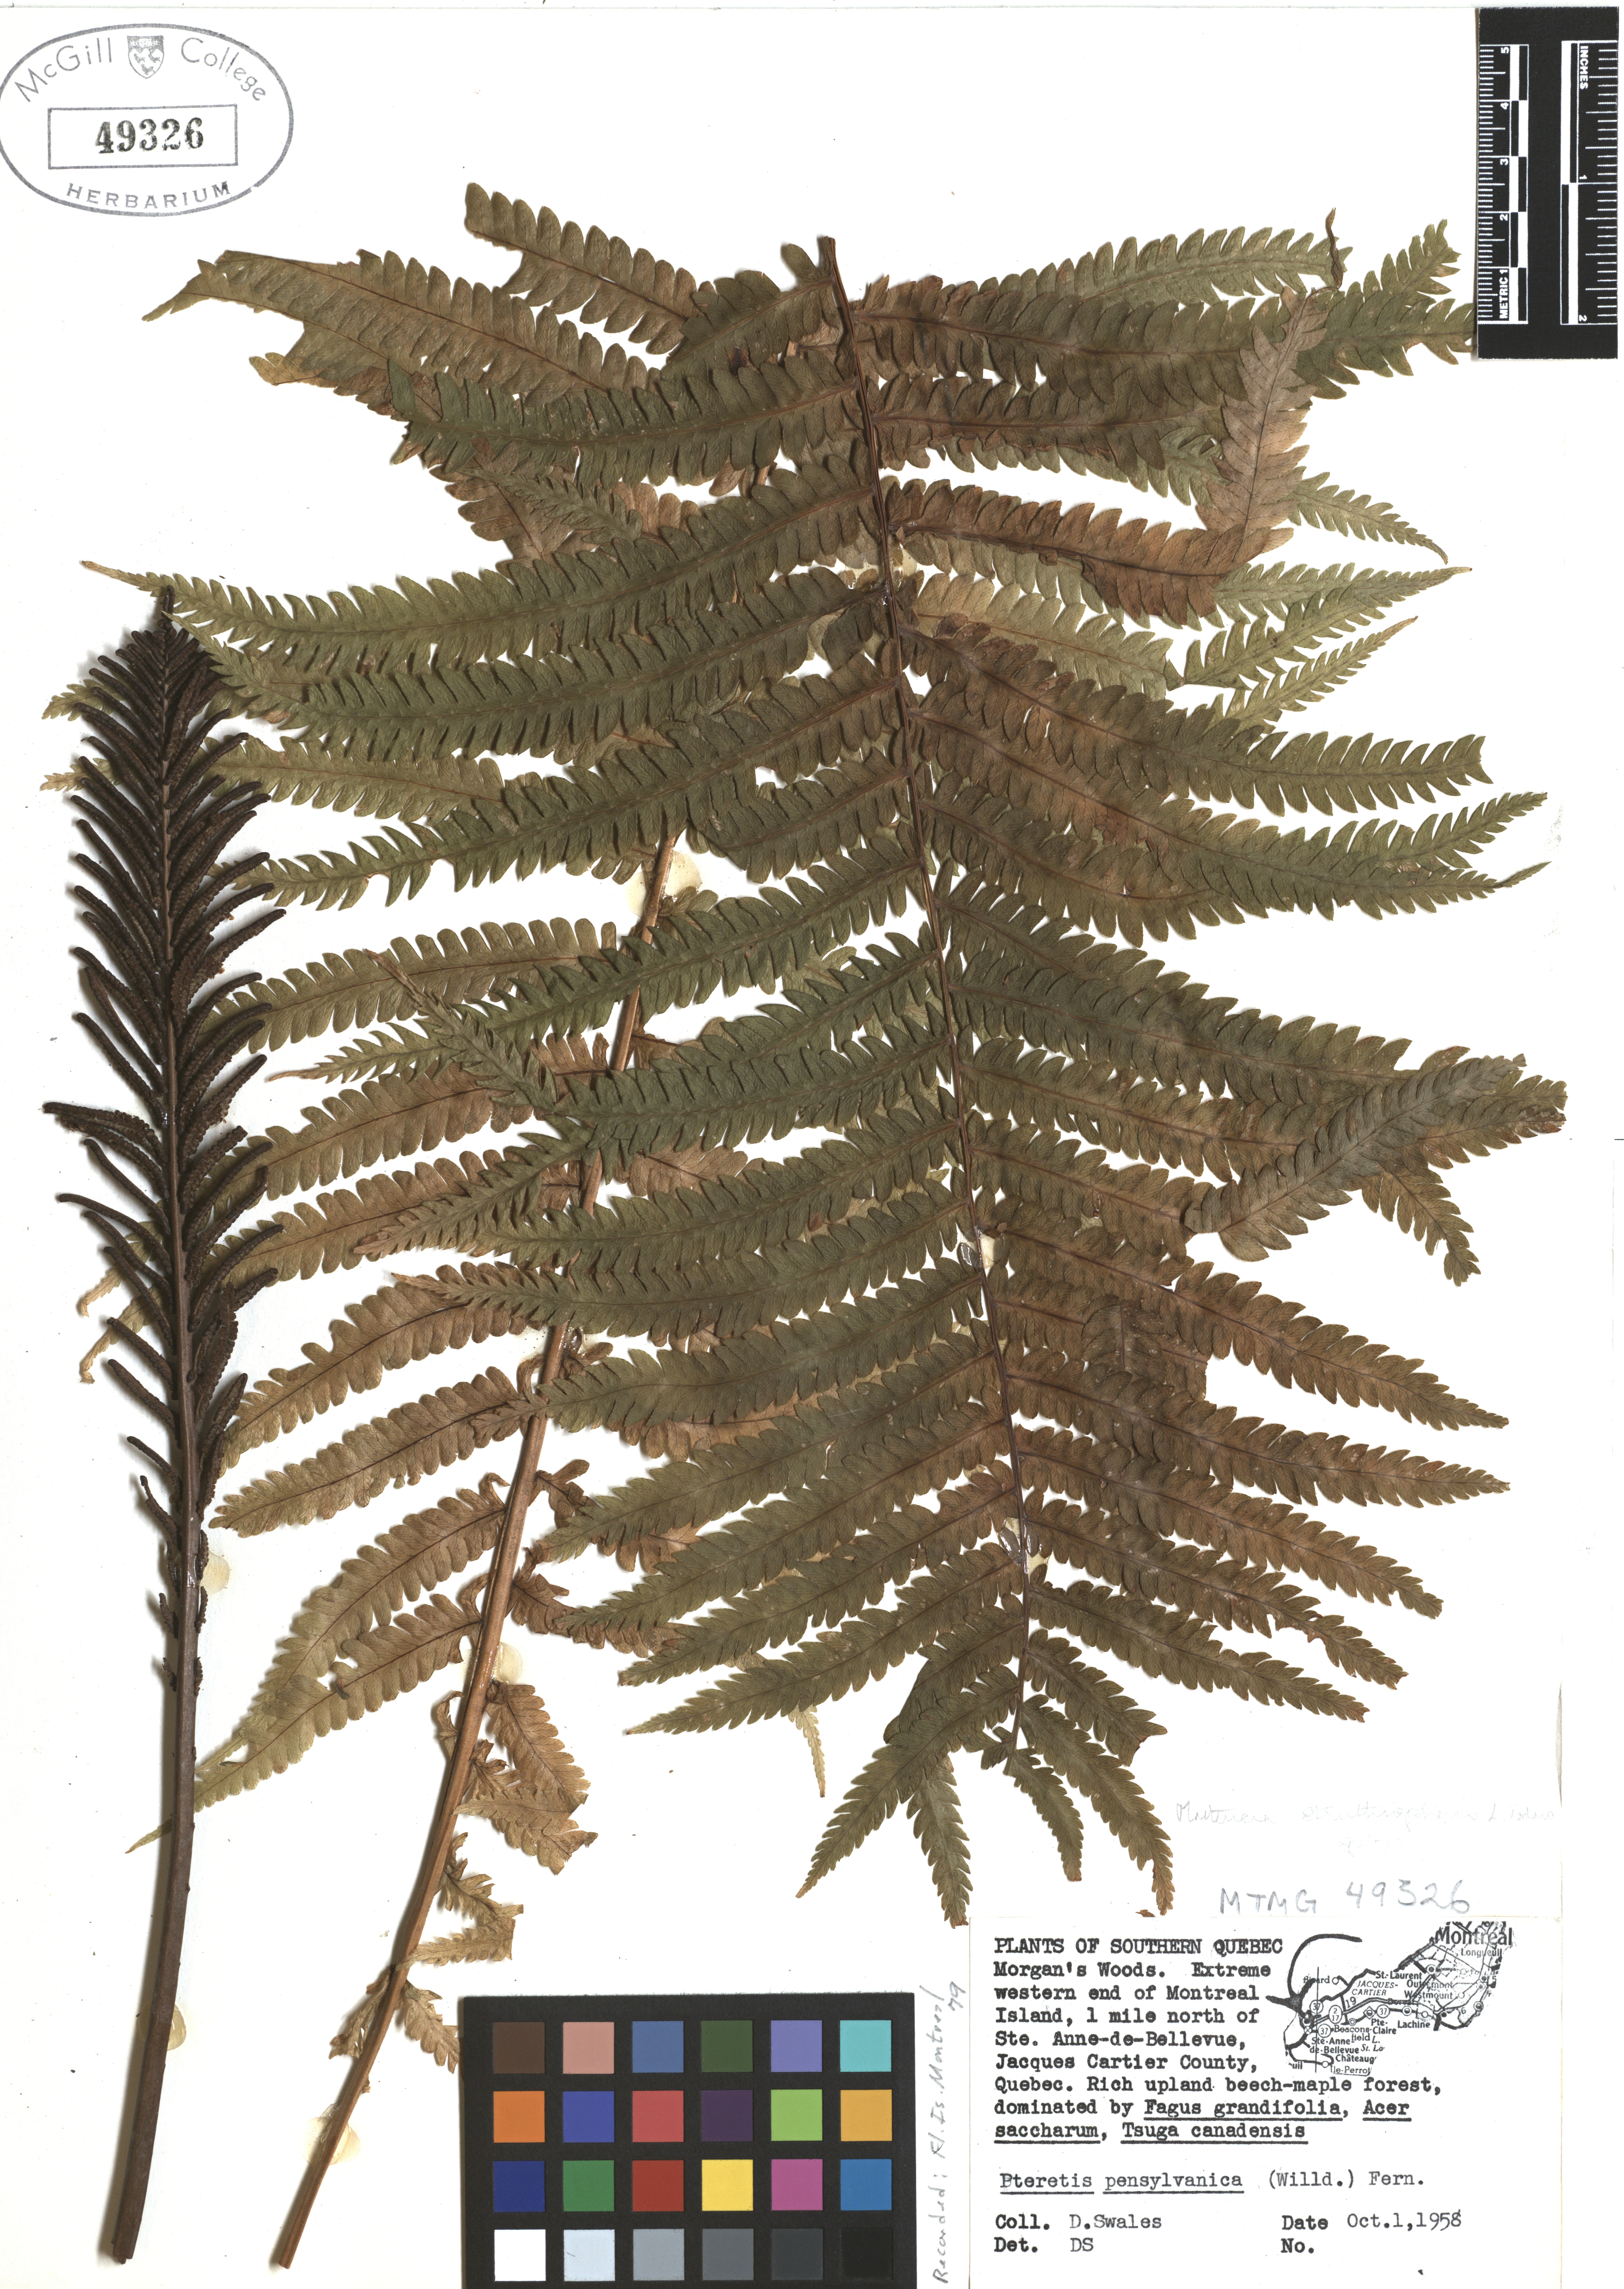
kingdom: Plantae
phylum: Tracheophyta
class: Polypodiopsida
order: Polypodiales
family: Onocleaceae
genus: Matteuccia
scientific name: Matteuccia struthiopteris
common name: Ostrich fern
